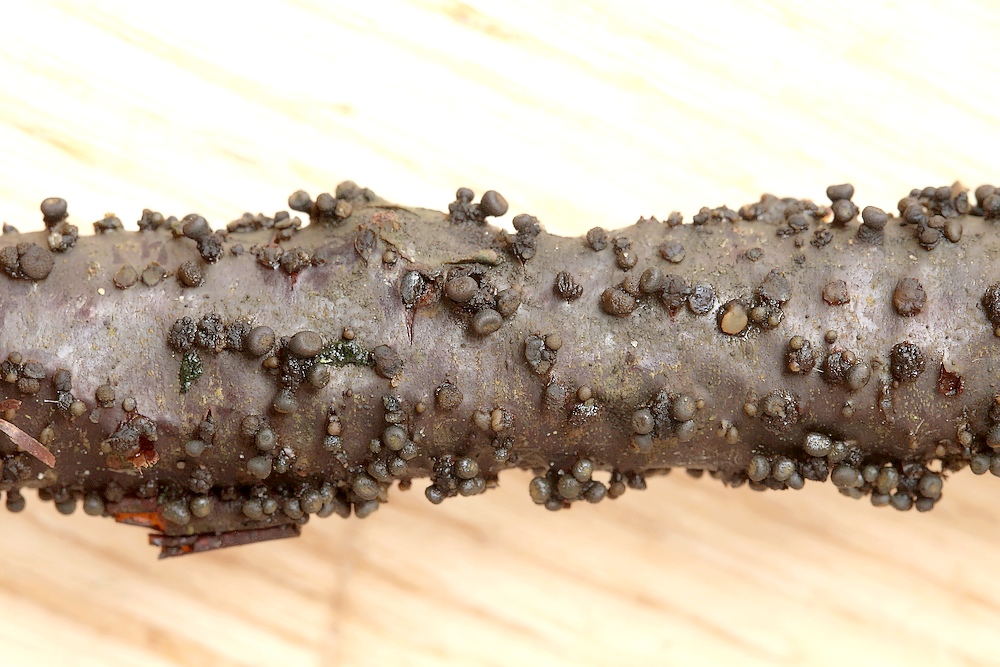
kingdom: Fungi
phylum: Ascomycota
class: Leotiomycetes
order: Helotiales
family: Godroniaceae
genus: Godronia
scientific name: Godronia uberiformis
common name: solbær-urneskive
